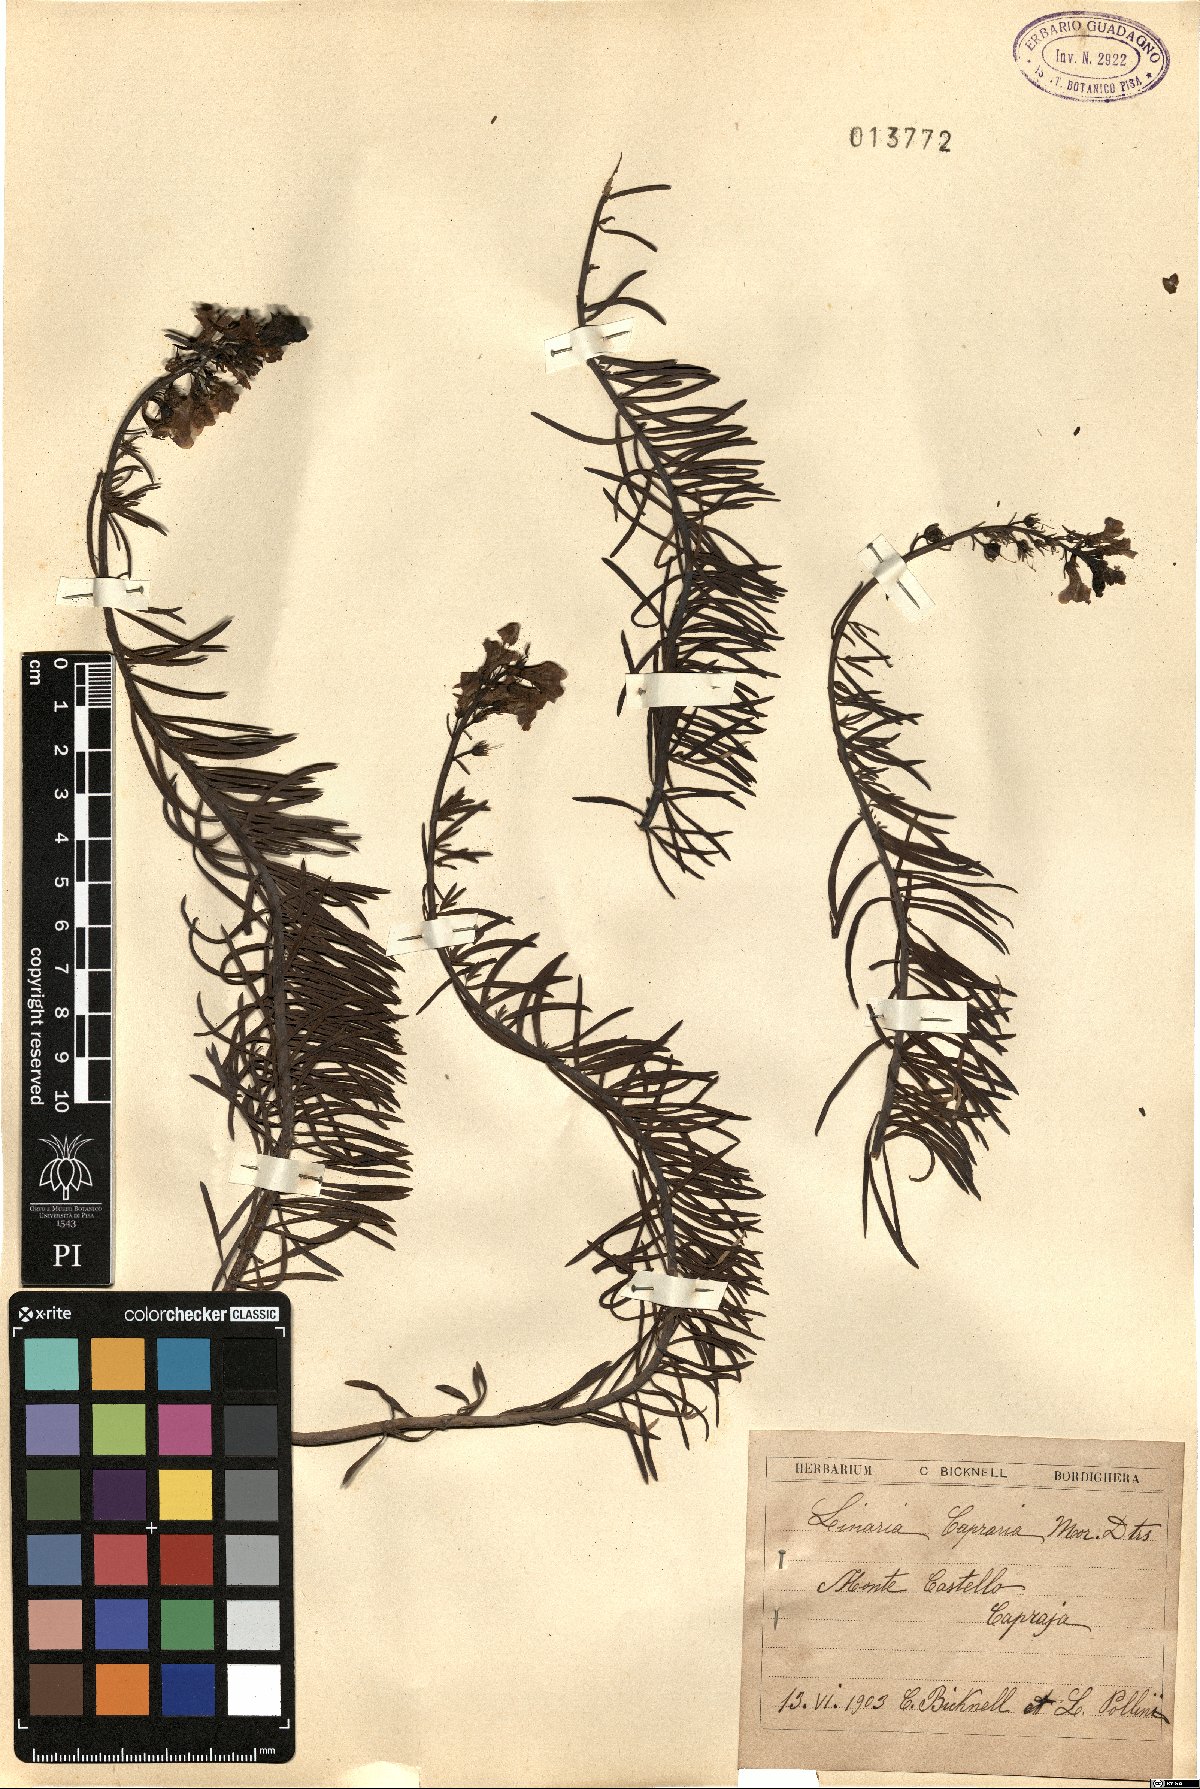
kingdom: Plantae
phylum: Tracheophyta
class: Magnoliopsida
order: Lamiales
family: Plantaginaceae
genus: Linaria
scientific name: Linaria capraria
